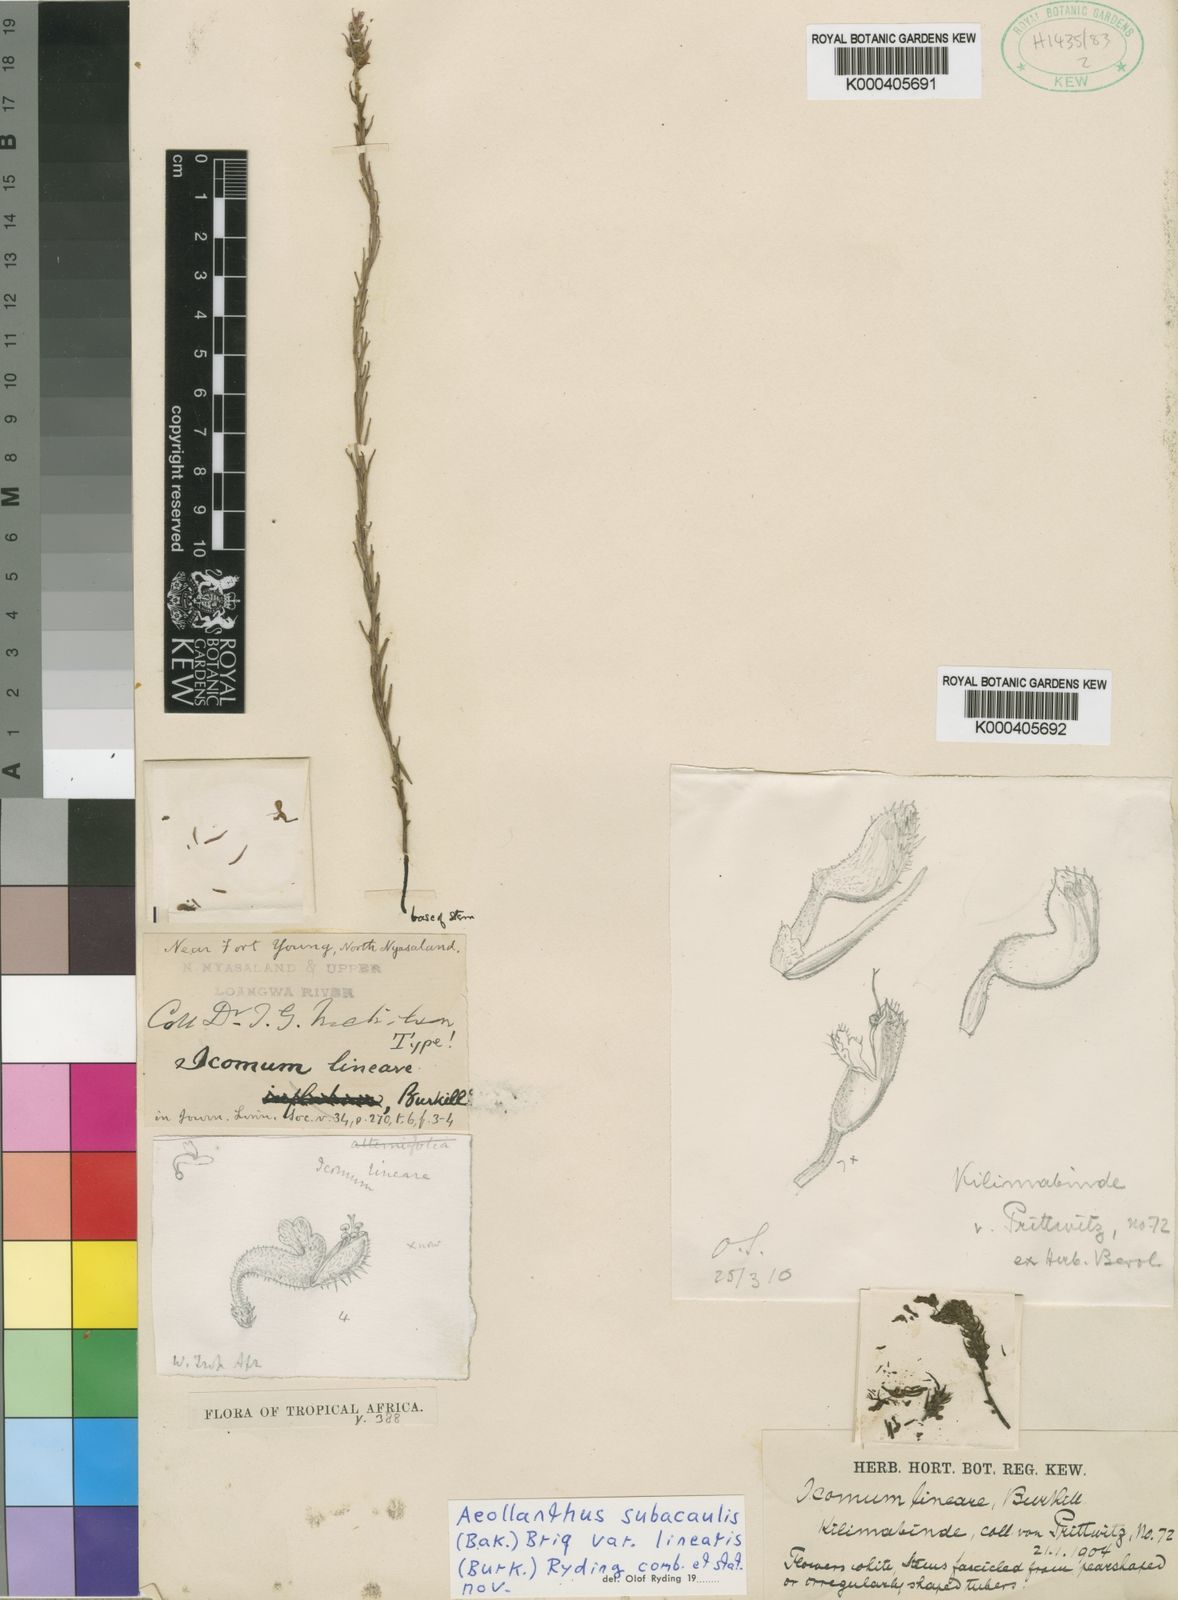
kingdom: Plantae
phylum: Tracheophyta
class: Magnoliopsida
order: Lamiales
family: Lamiaceae
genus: Aeollanthus
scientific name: Aeollanthus subacaulis
